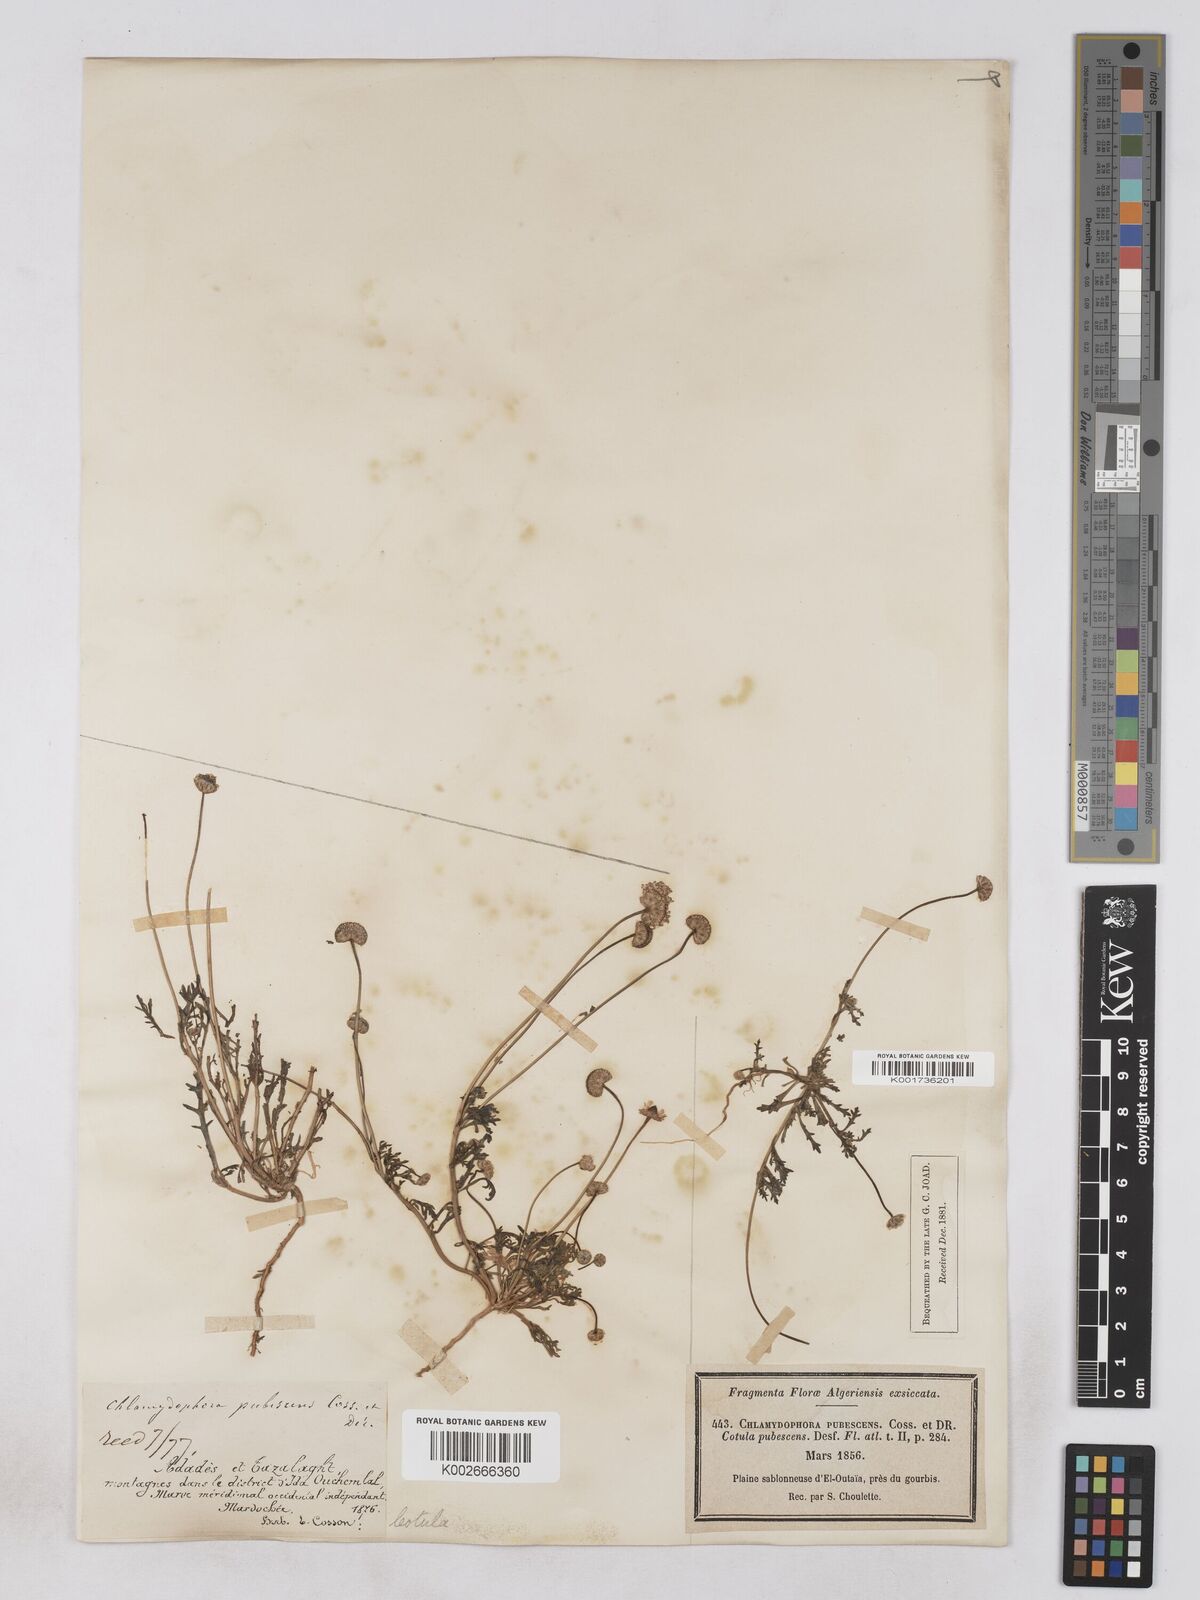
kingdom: Plantae
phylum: Tracheophyta
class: Magnoliopsida
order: Asterales
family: Asteraceae
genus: Otoglyphis
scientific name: Otoglyphis pubescens
